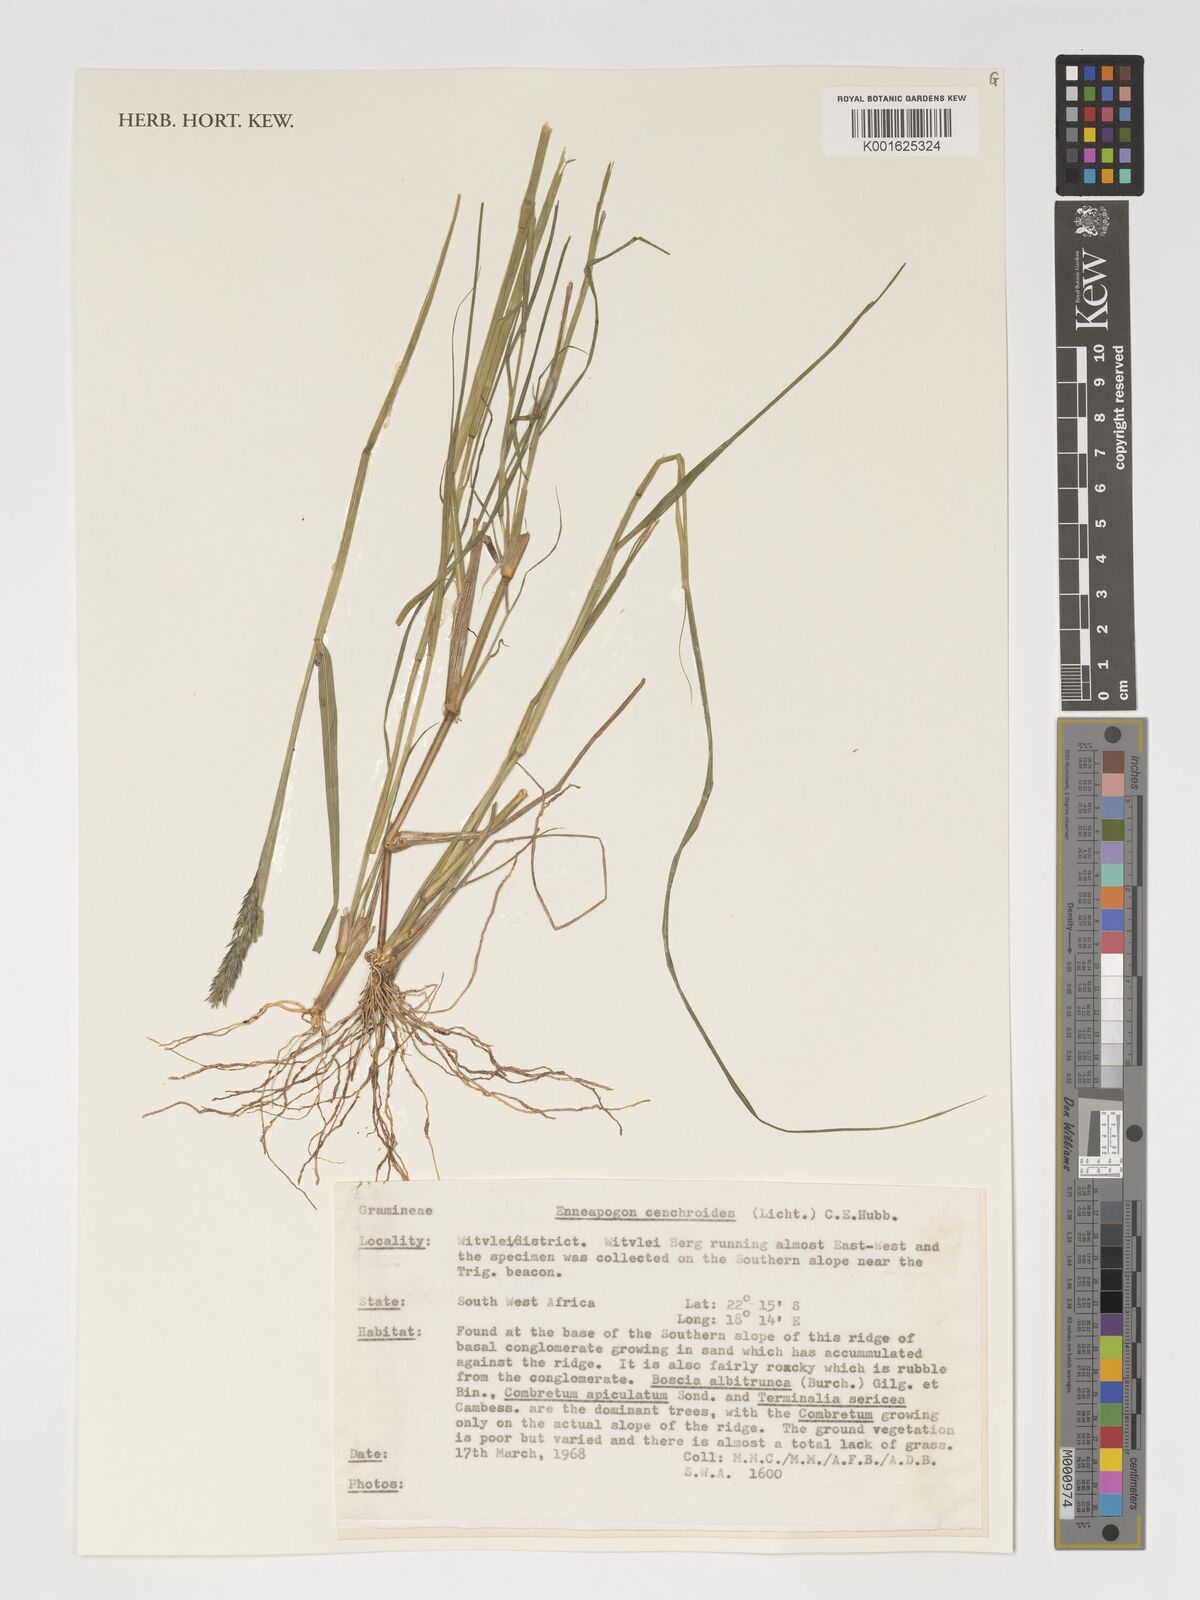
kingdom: Plantae
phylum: Tracheophyta
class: Liliopsida
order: Poales
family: Poaceae
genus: Enneapogon
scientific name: Enneapogon cenchroides
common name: Soft feather pappusgrass
